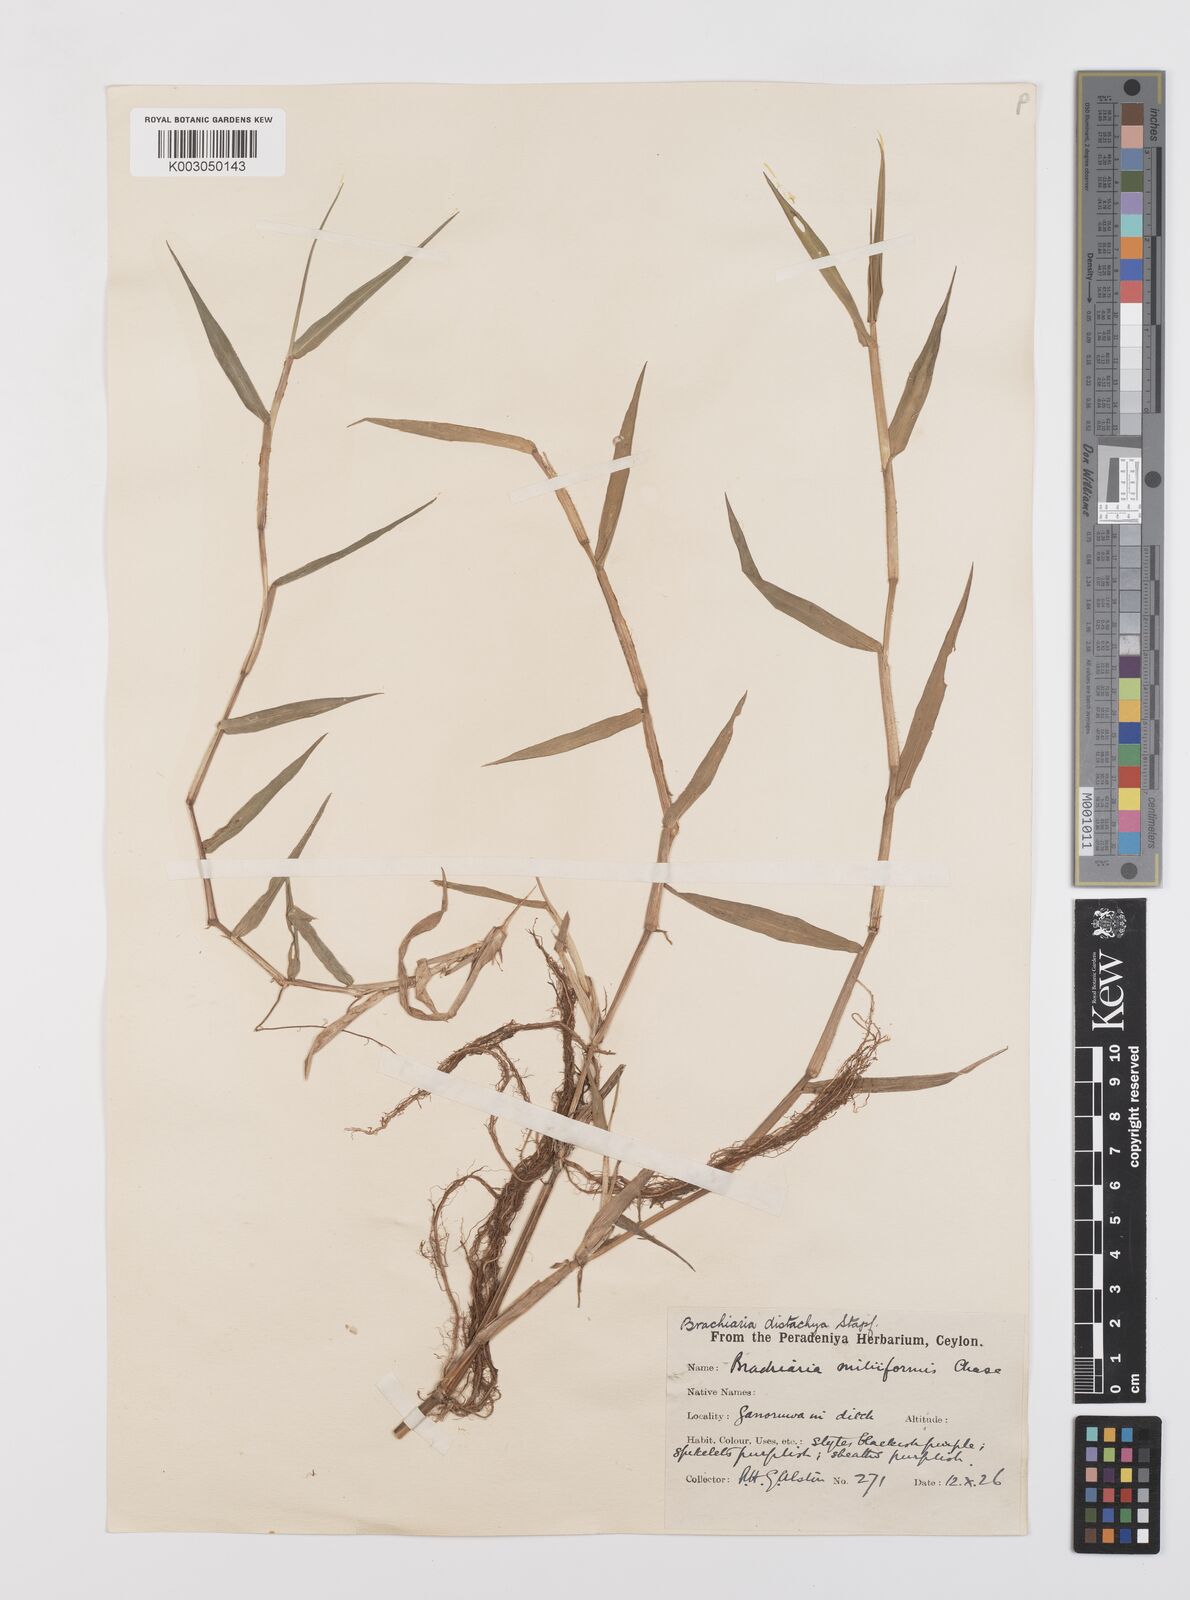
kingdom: Plantae
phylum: Tracheophyta
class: Liliopsida
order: Poales
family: Poaceae
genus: Urochloa
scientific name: Urochloa subquadripara
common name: Armgrass millet
